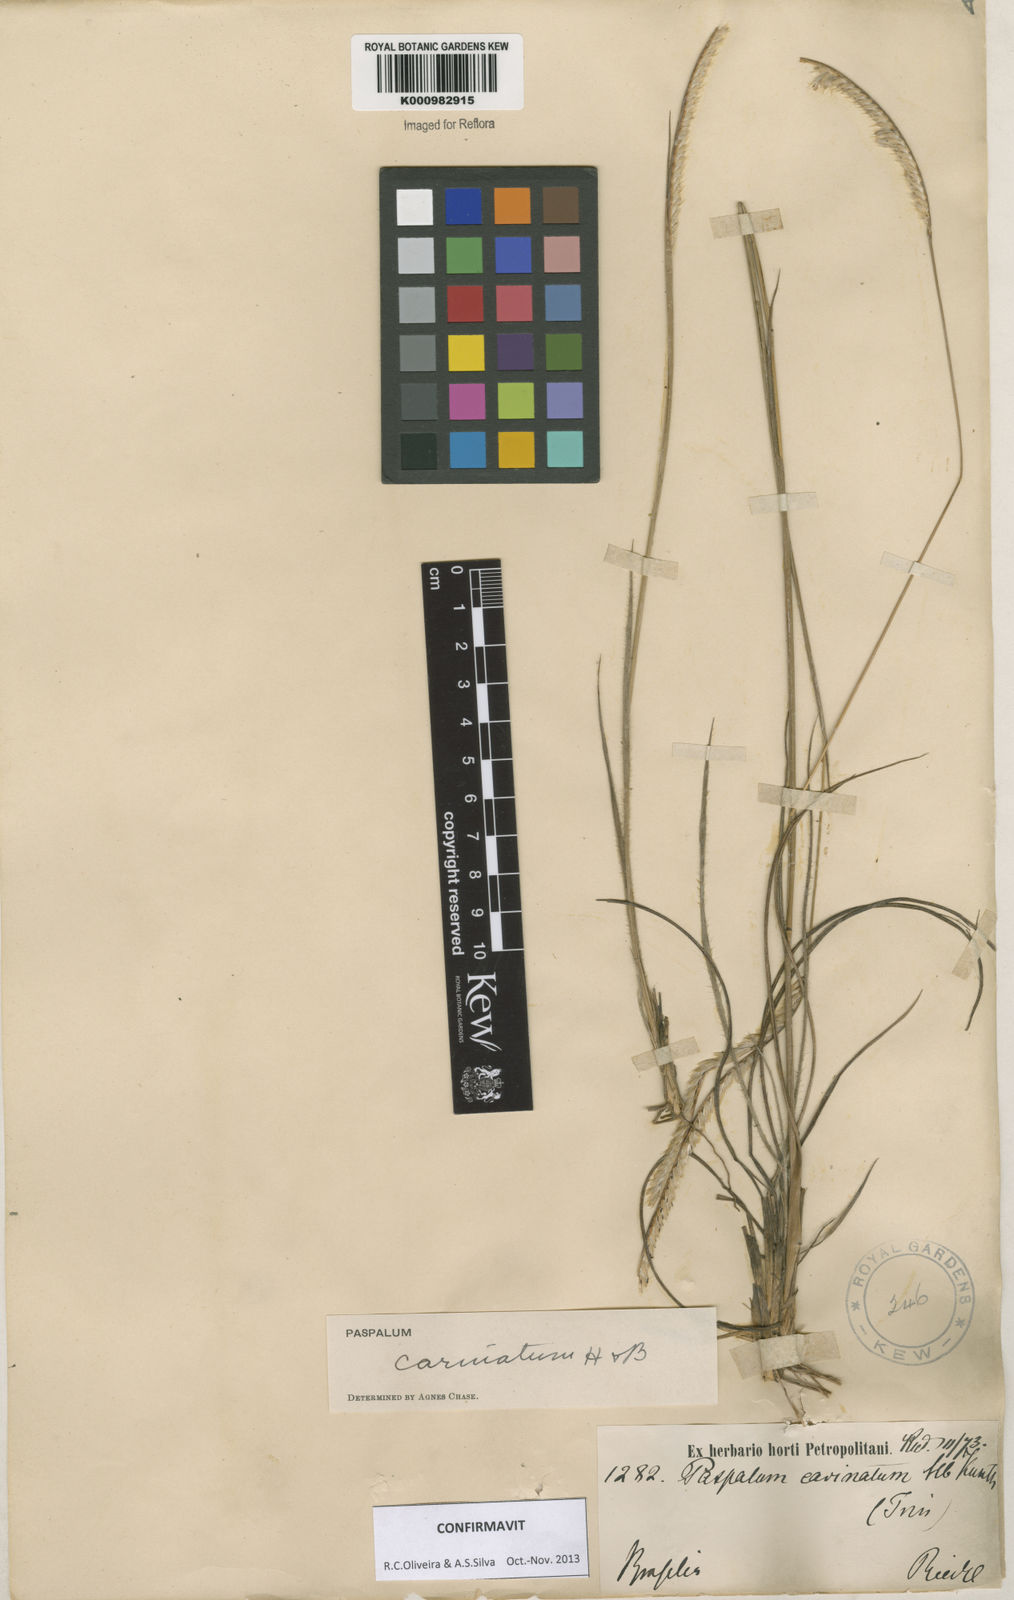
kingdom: Plantae
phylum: Tracheophyta
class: Liliopsida
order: Poales
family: Poaceae
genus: Paspalum
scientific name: Paspalum
